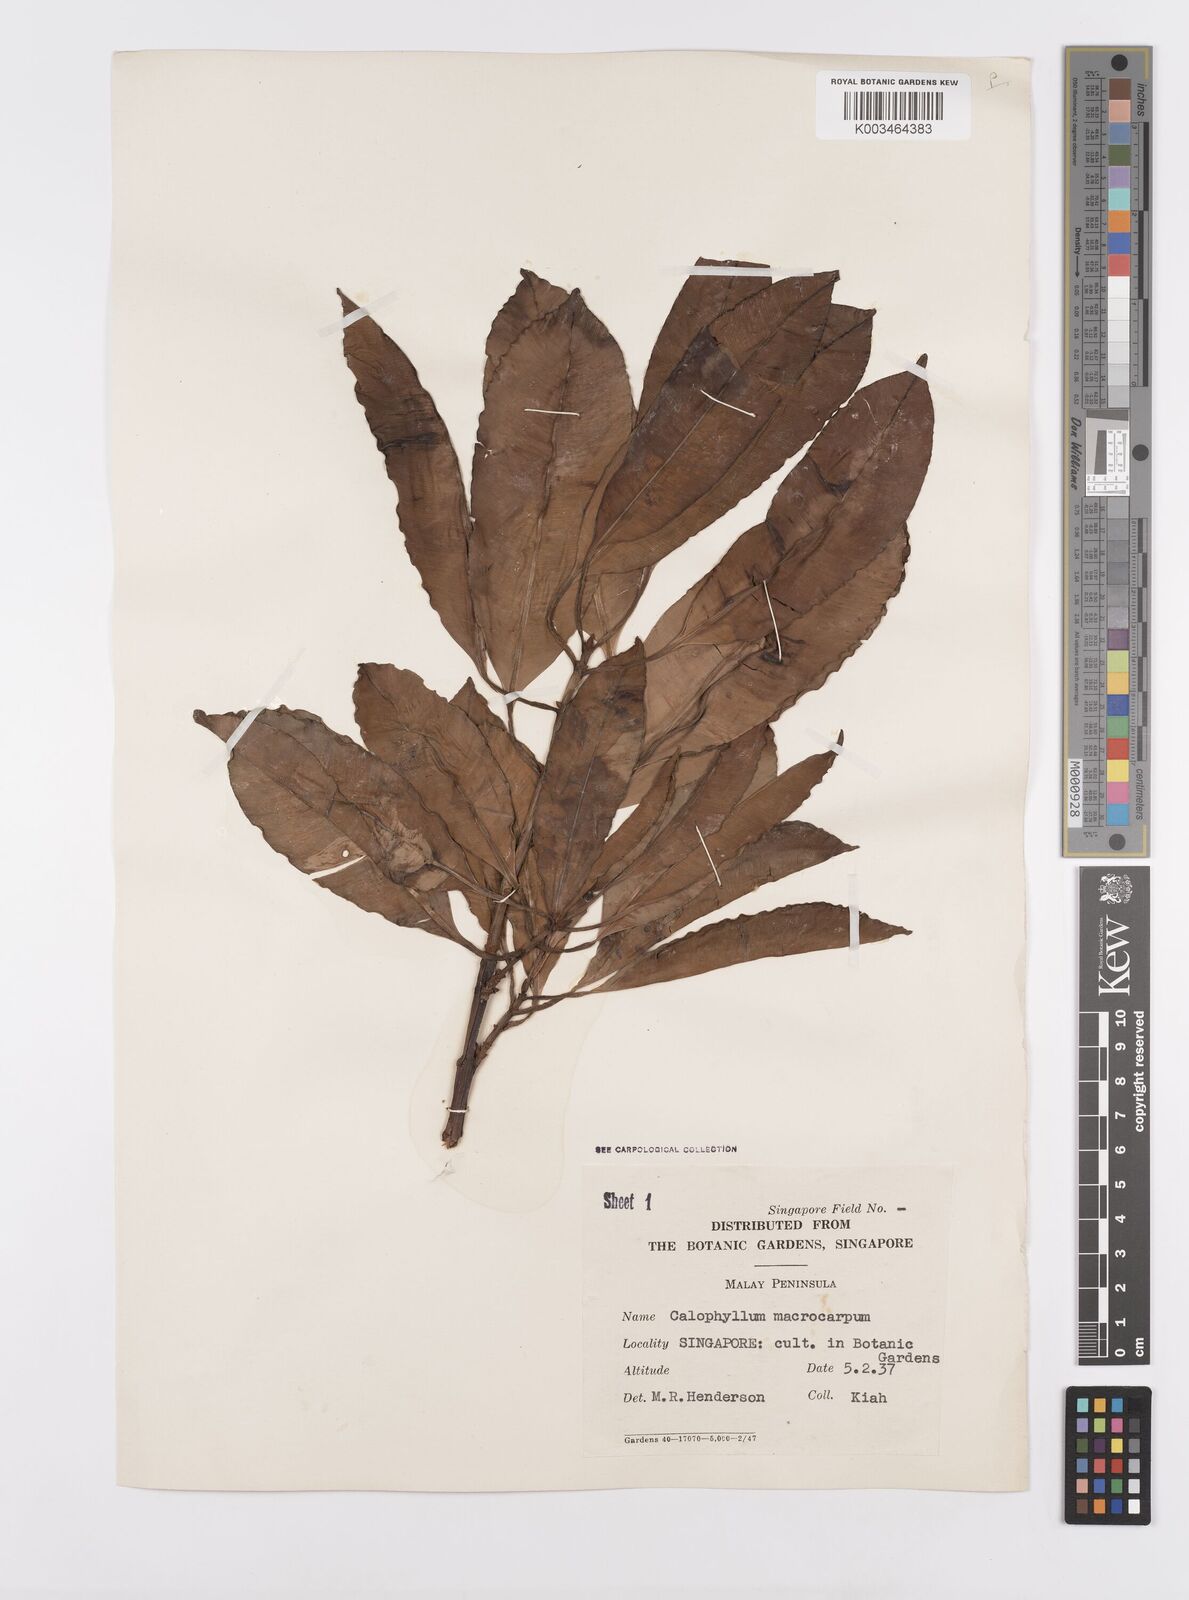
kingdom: Plantae
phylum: Tracheophyta
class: Magnoliopsida
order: Malpighiales
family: Calophyllaceae
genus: Calophyllum
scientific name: Calophyllum macrocarpum
